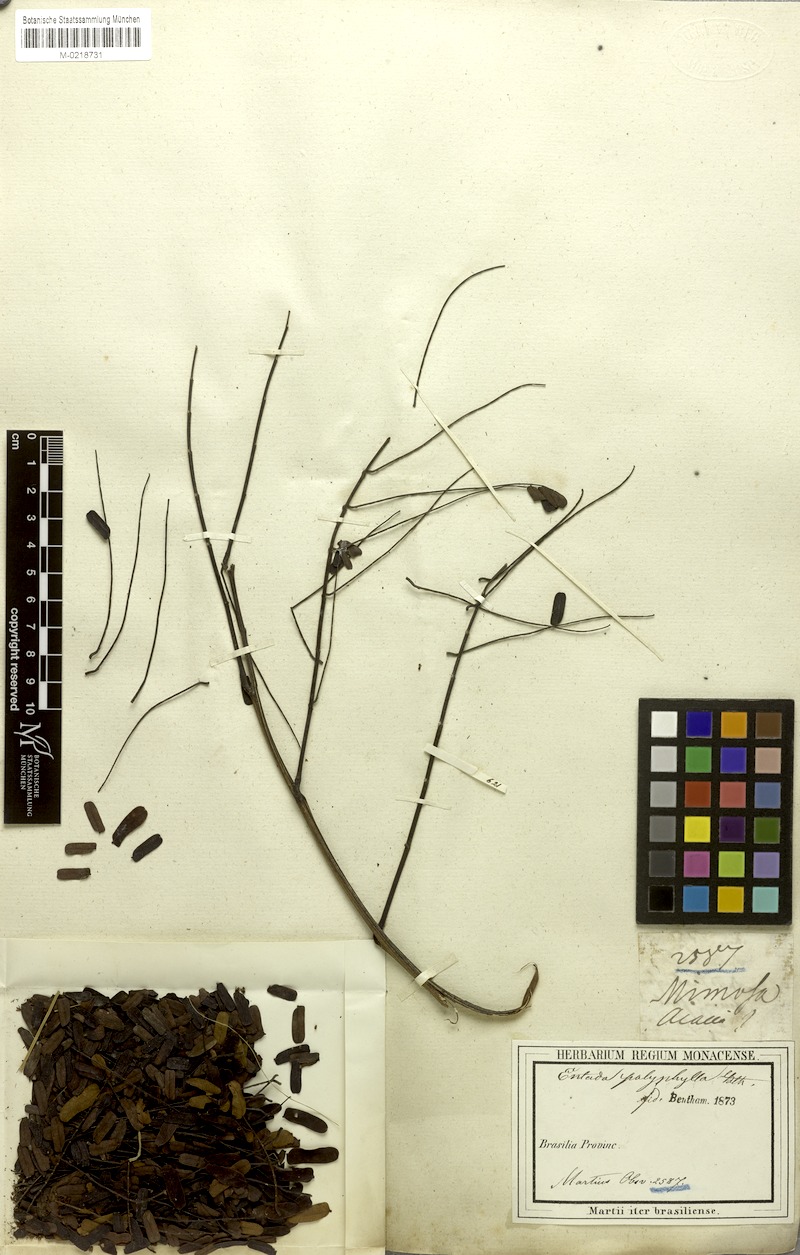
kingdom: Plantae
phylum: Tracheophyta
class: Magnoliopsida
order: Fabales
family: Fabaceae
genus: Entada
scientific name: Entada polyphylla
